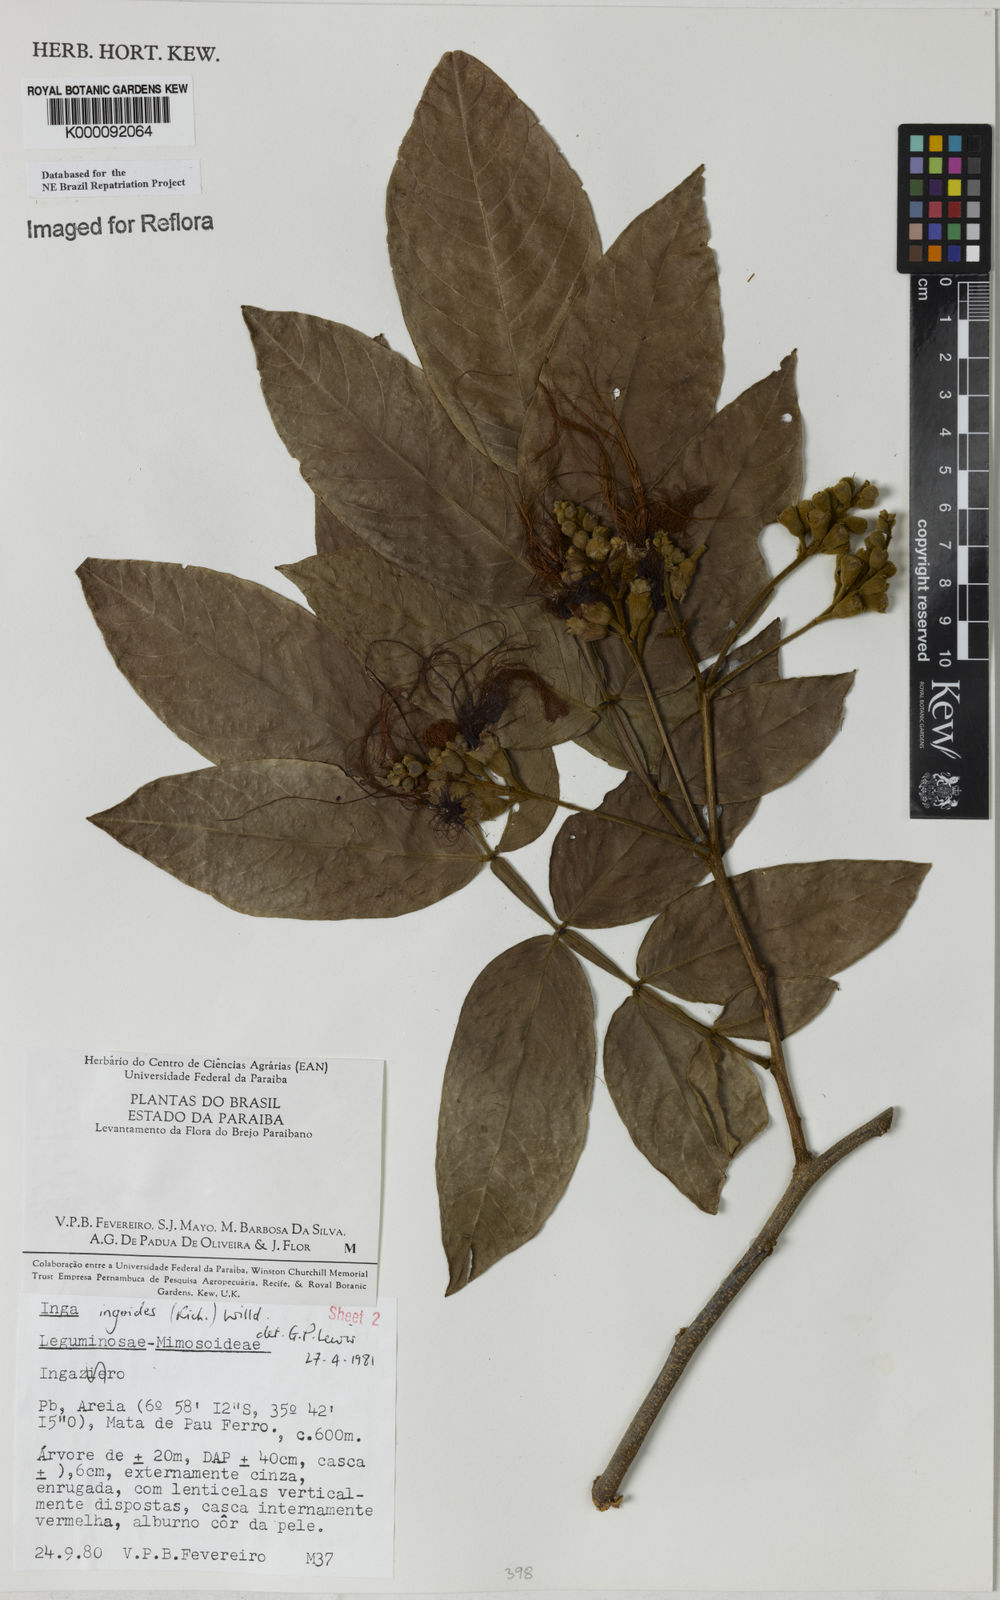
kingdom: Plantae
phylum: Tracheophyta
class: Magnoliopsida
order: Fabales
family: Fabaceae
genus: Inga
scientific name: Inga ingoides
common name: Spanish ash
